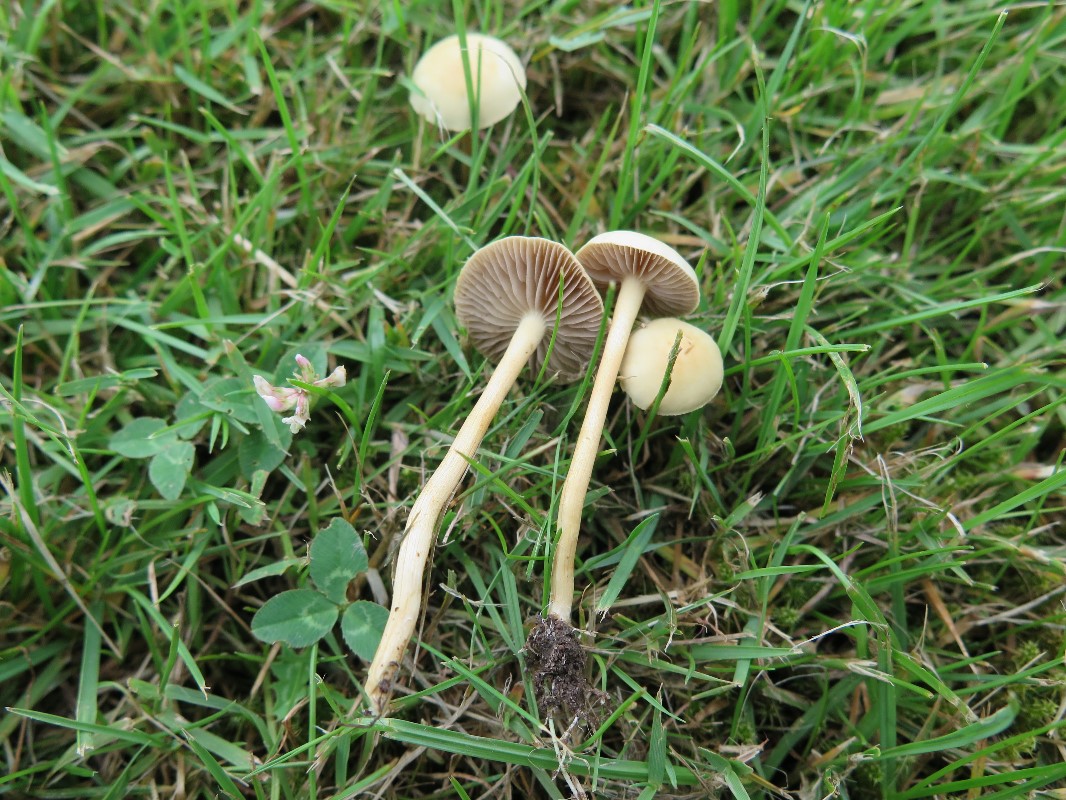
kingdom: Fungi
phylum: Basidiomycota
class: Agaricomycetes
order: Agaricales
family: Strophariaceae
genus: Agrocybe
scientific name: Agrocybe pediades
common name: almindelig agerhat
